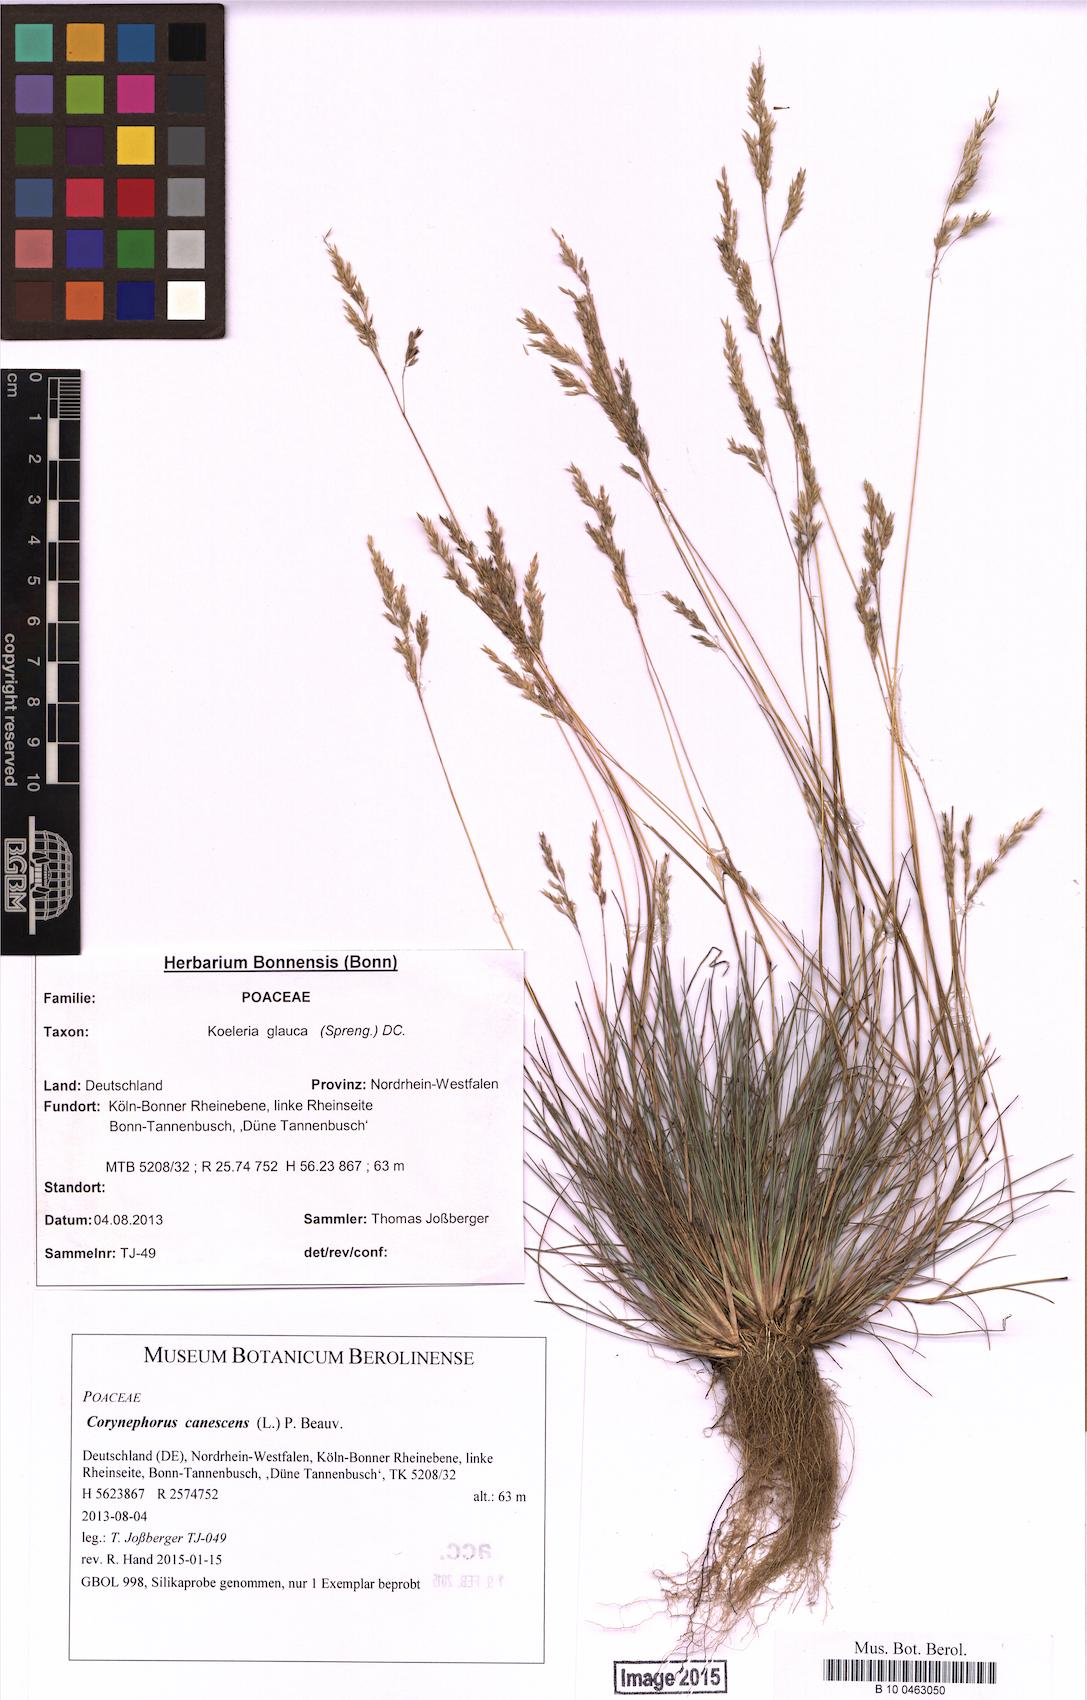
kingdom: Plantae
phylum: Tracheophyta
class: Liliopsida
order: Poales
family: Poaceae
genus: Corynephorus
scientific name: Corynephorus canescens
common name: Grey hair-grass
